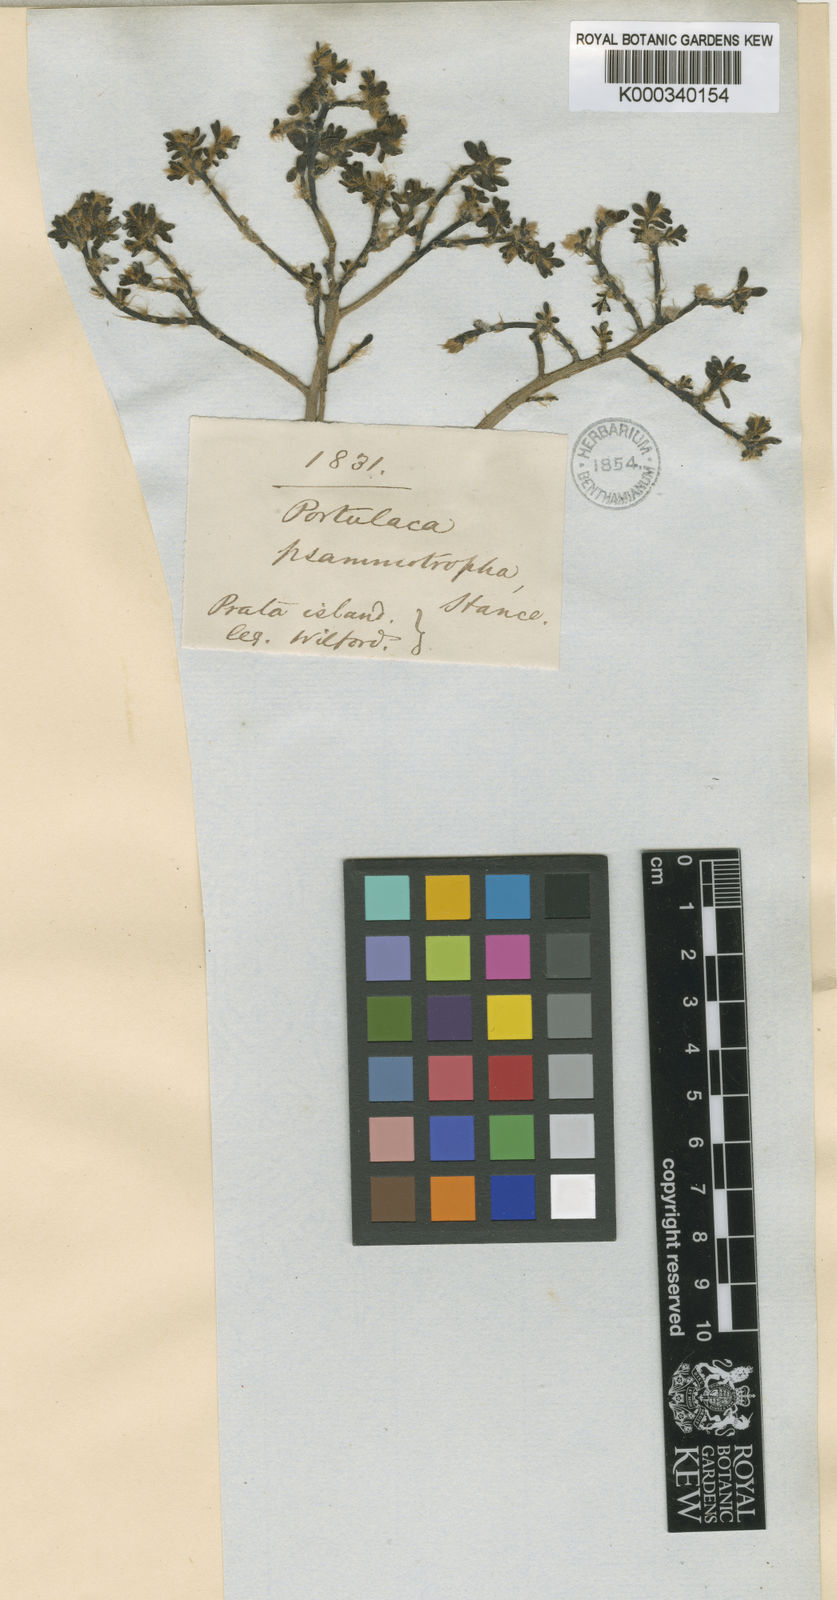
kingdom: Plantae
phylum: Tracheophyta
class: Magnoliopsida
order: Caryophyllales
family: Portulacaceae
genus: Portulaca
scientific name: Portulaca psammotropha
